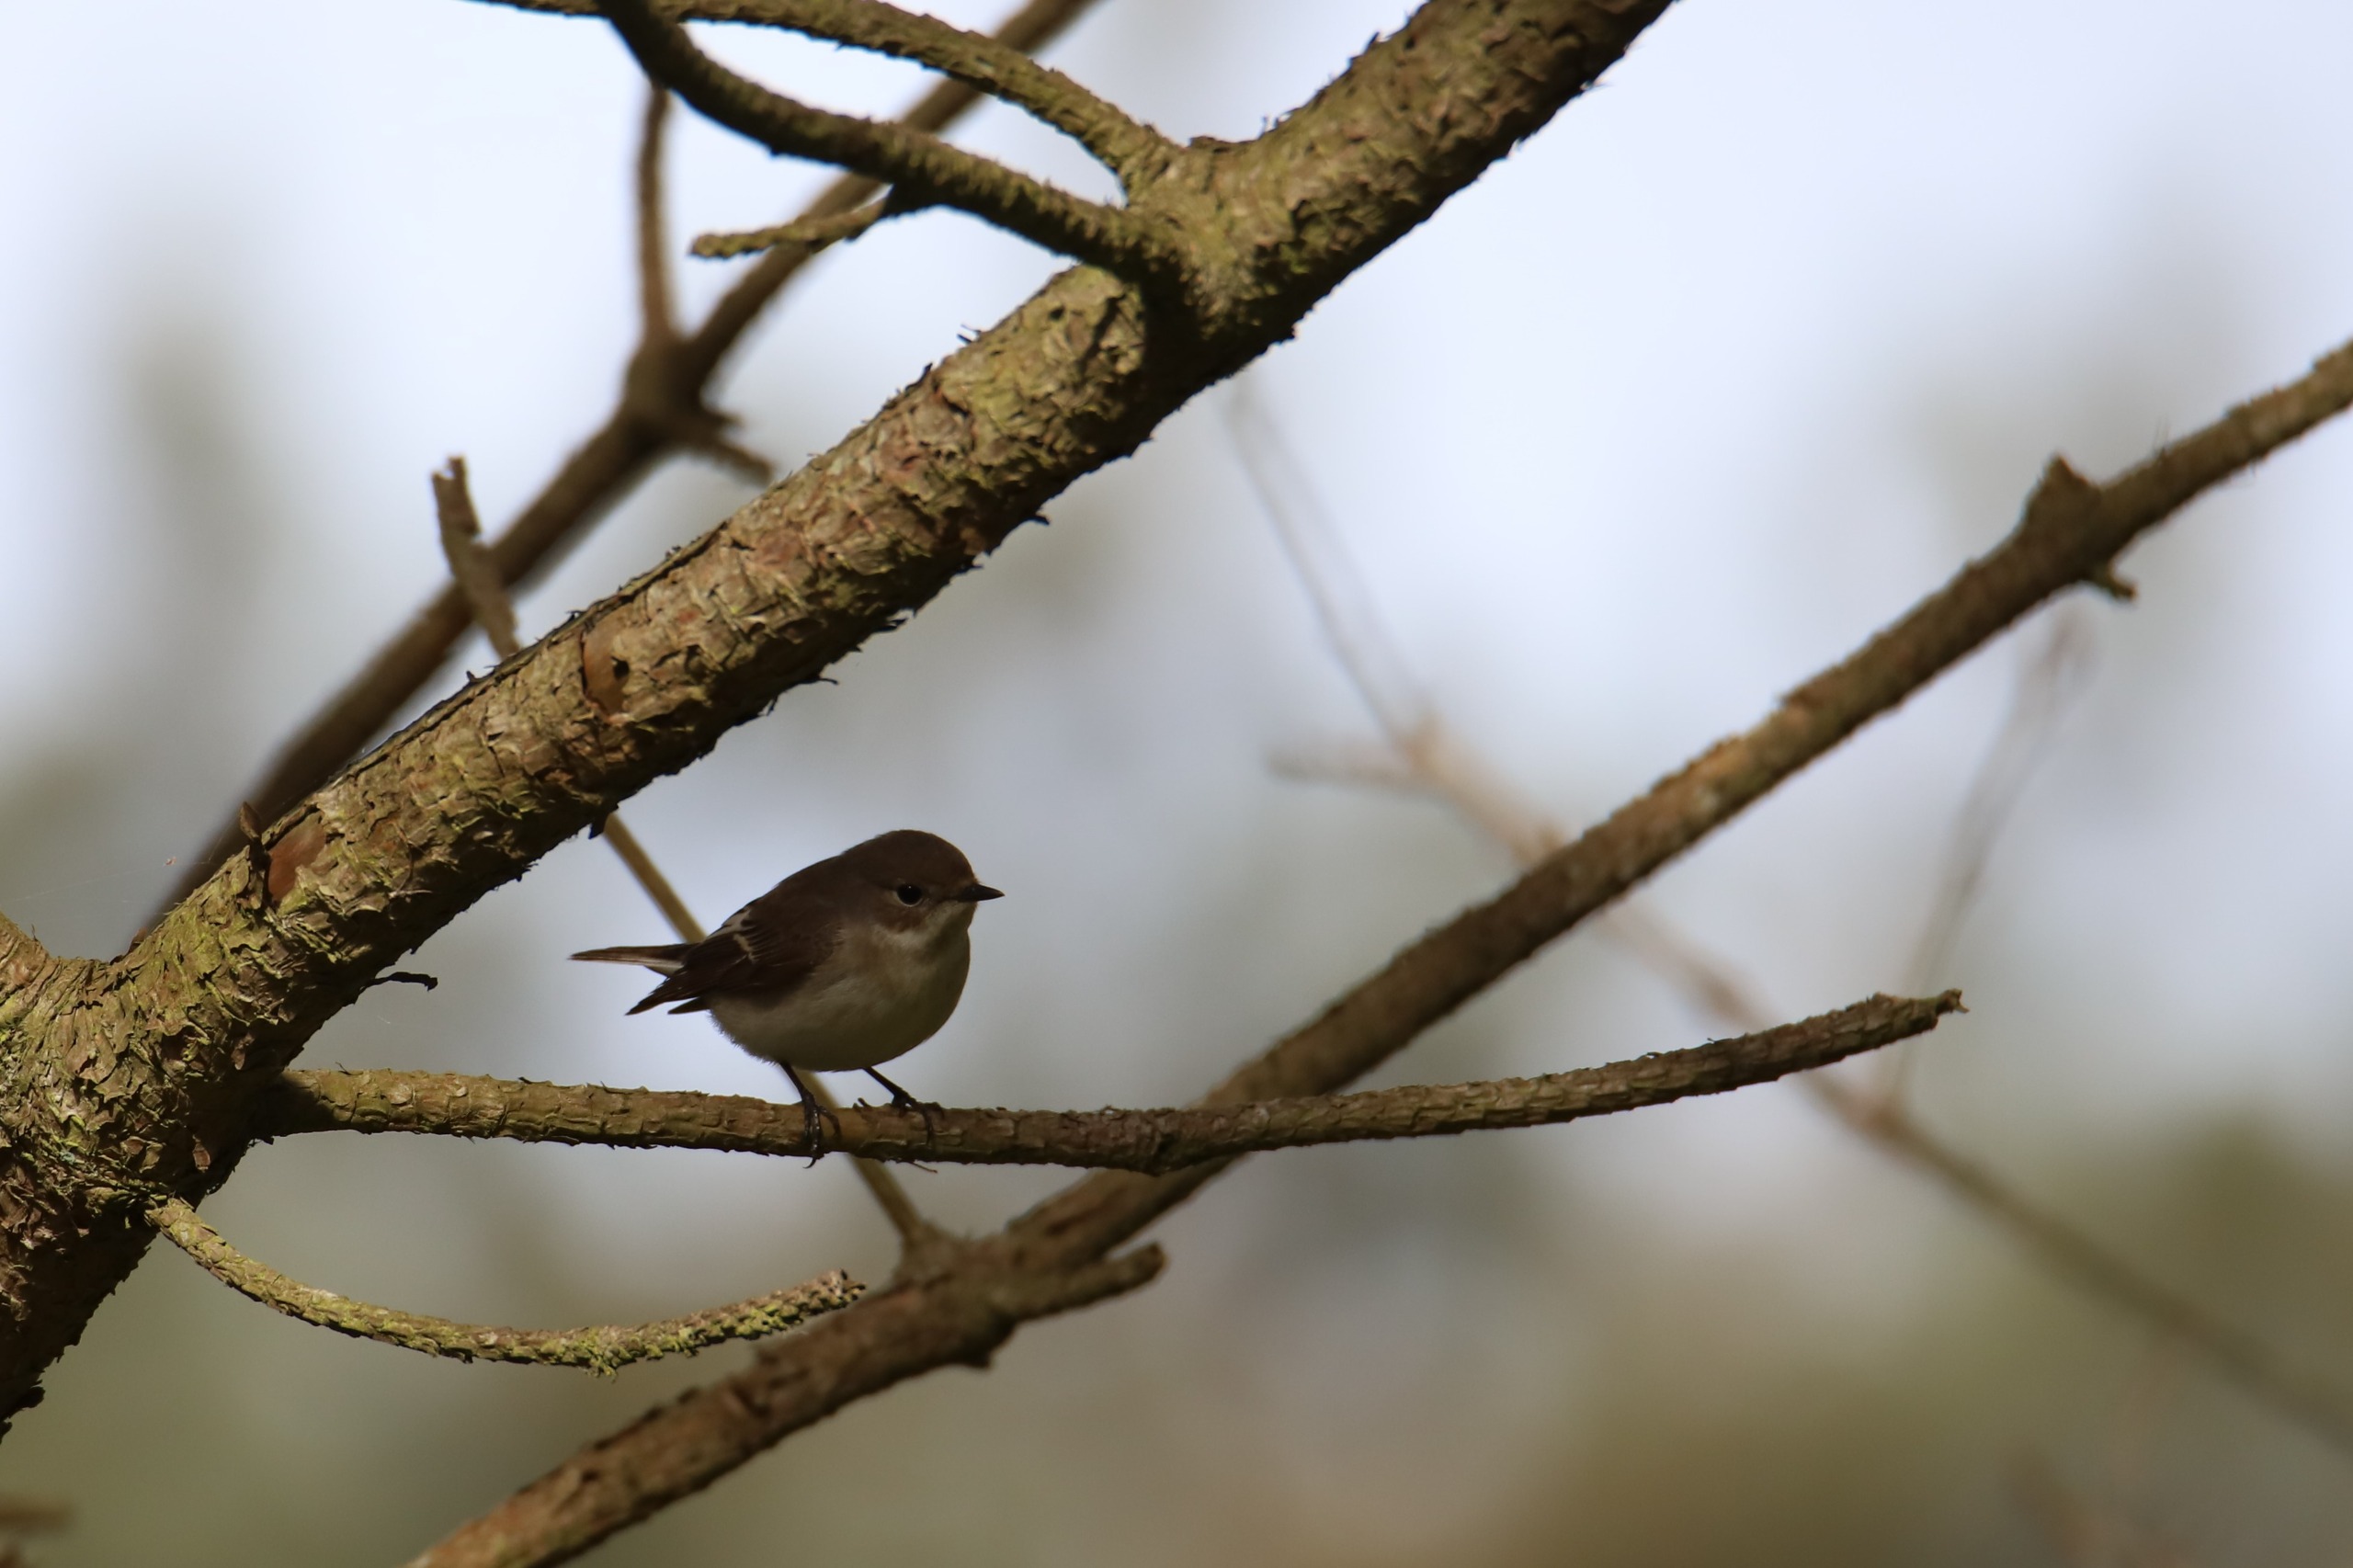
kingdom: Animalia
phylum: Chordata
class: Aves
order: Passeriformes
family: Muscicapidae
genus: Ficedula
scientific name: Ficedula hypoleuca
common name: Broget fluesnapper
